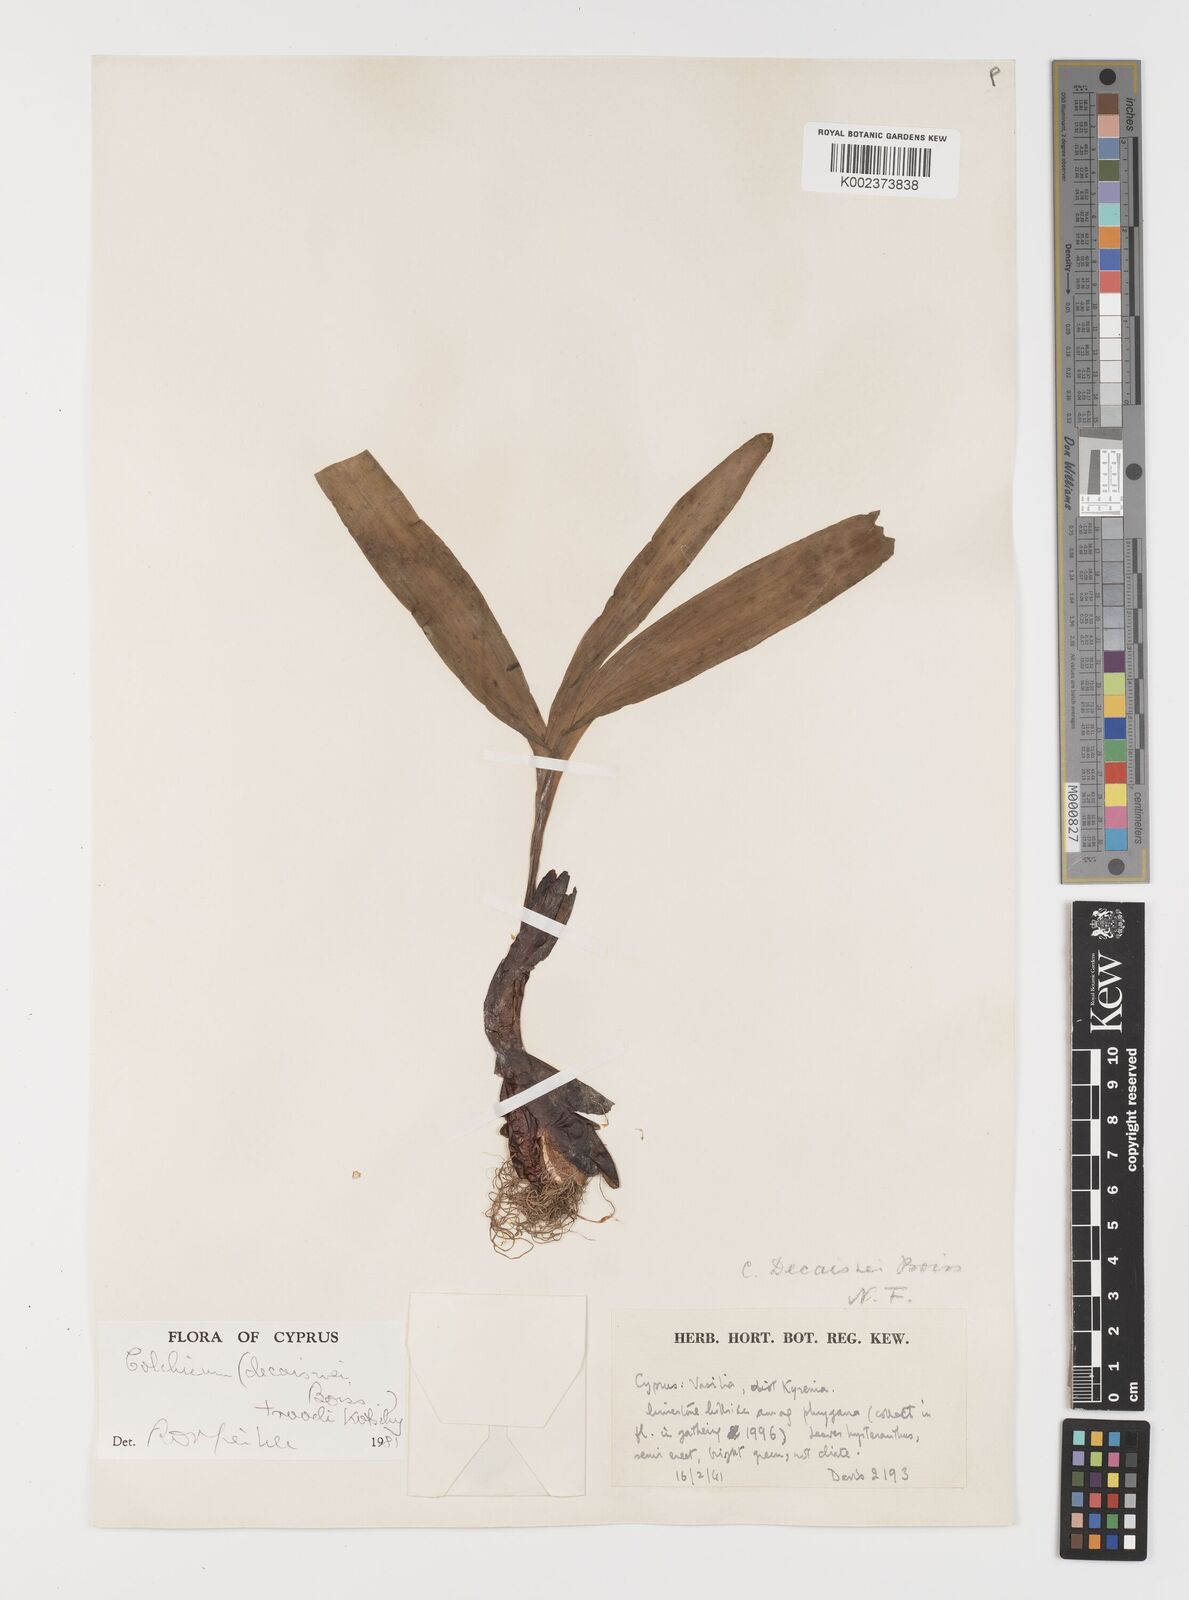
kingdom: Plantae
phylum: Tracheophyta
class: Liliopsida
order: Liliales
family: Colchicaceae
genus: Colchicum
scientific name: Colchicum troodi
